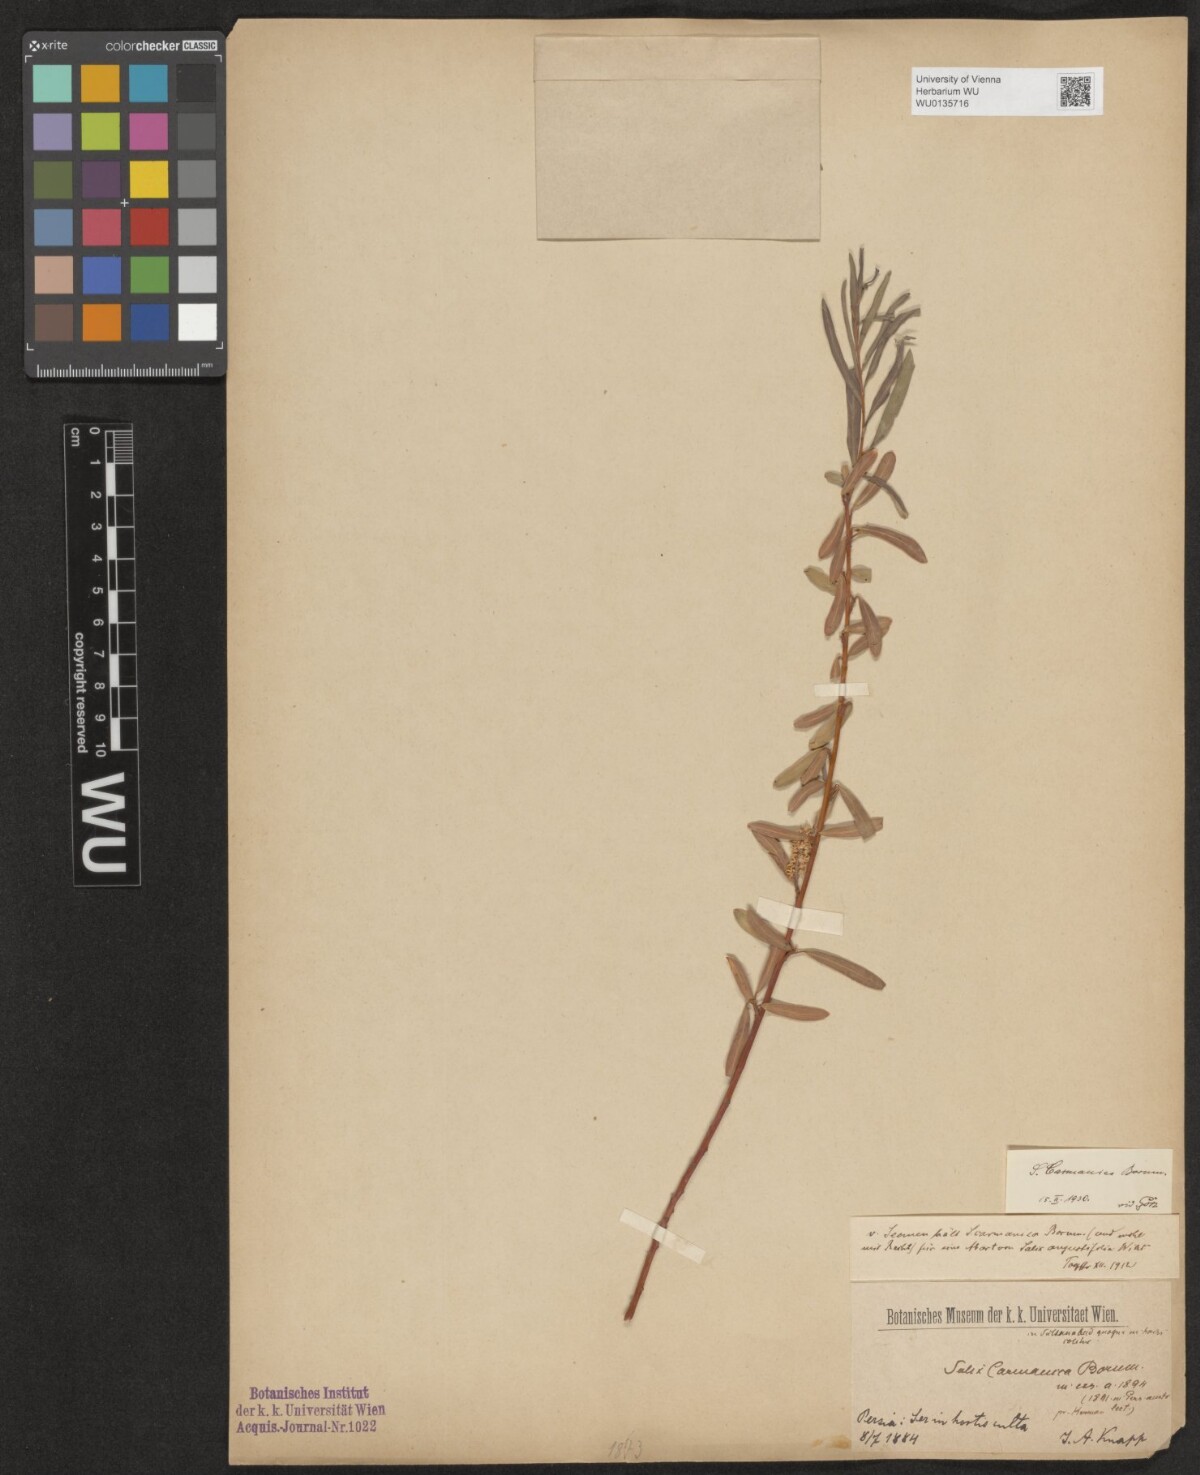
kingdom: Plantae
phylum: Tracheophyta
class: Magnoliopsida
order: Malpighiales
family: Salicaceae
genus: Salix
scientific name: Salix carmanica
